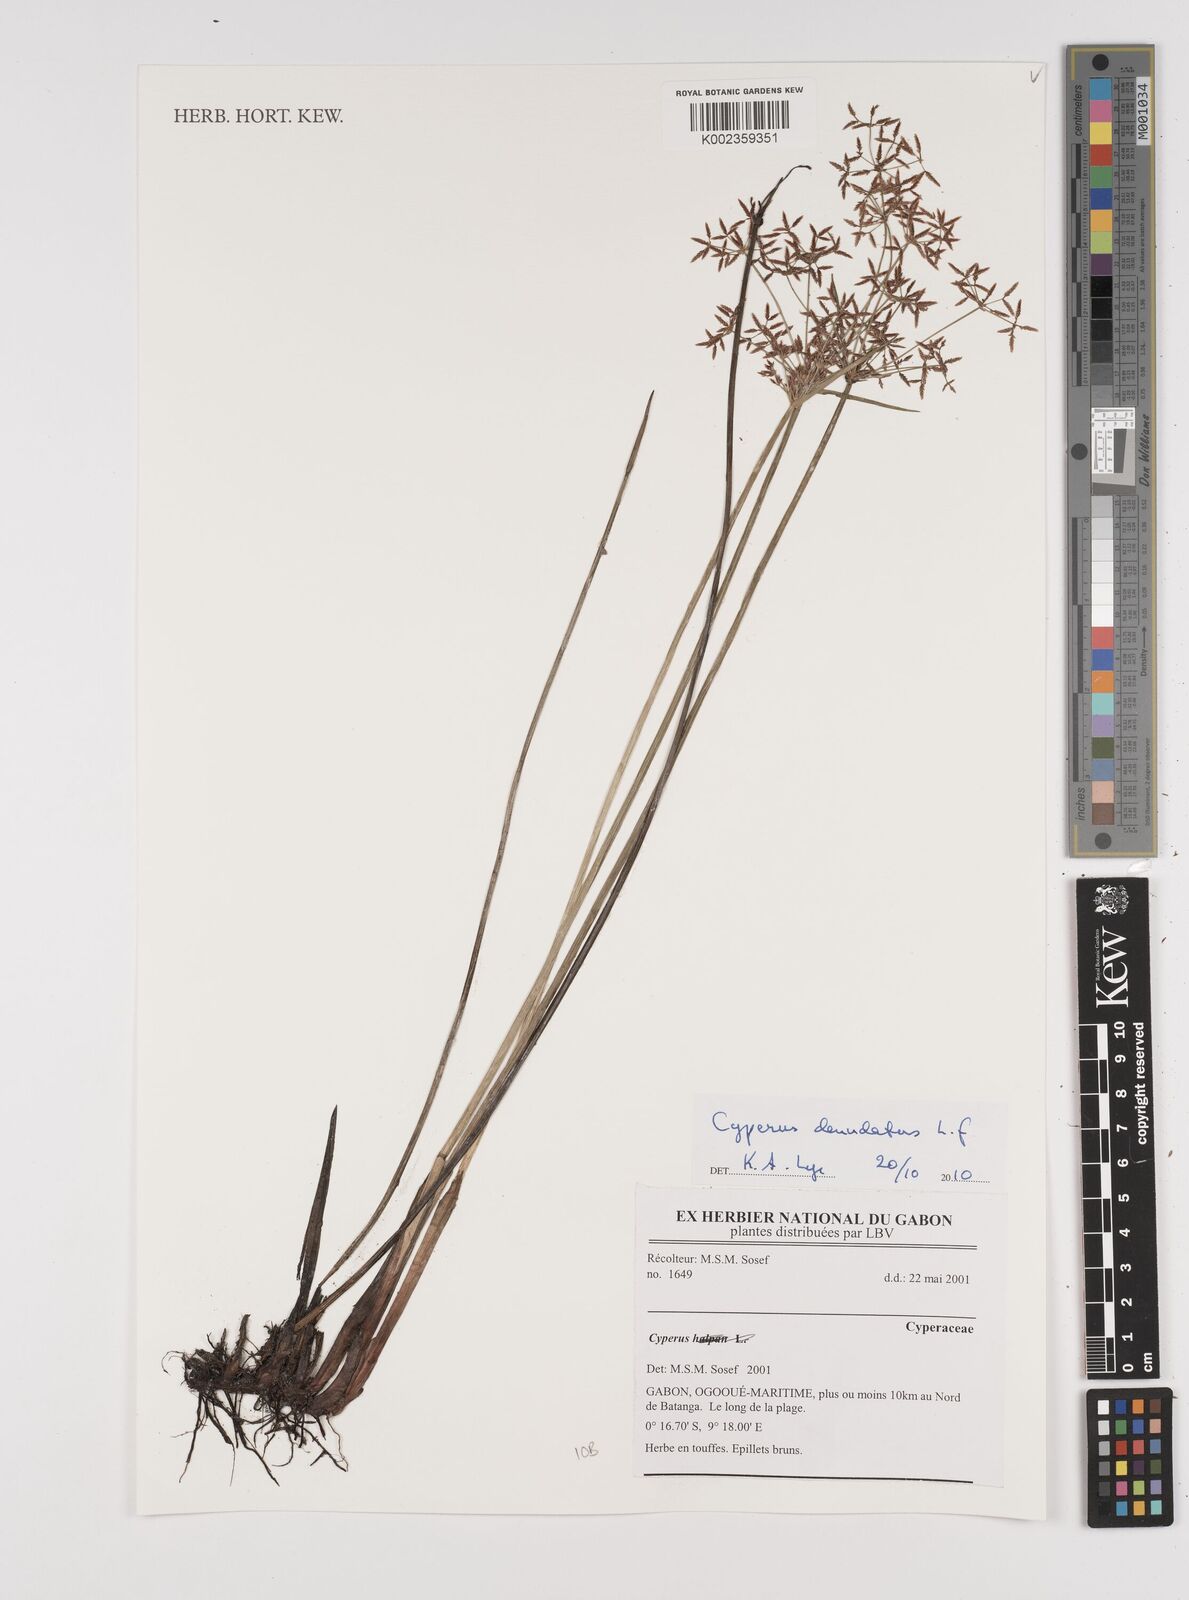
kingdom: Plantae
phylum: Tracheophyta
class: Liliopsida
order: Poales
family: Cyperaceae
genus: Cyperus
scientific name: Cyperus denudatus
